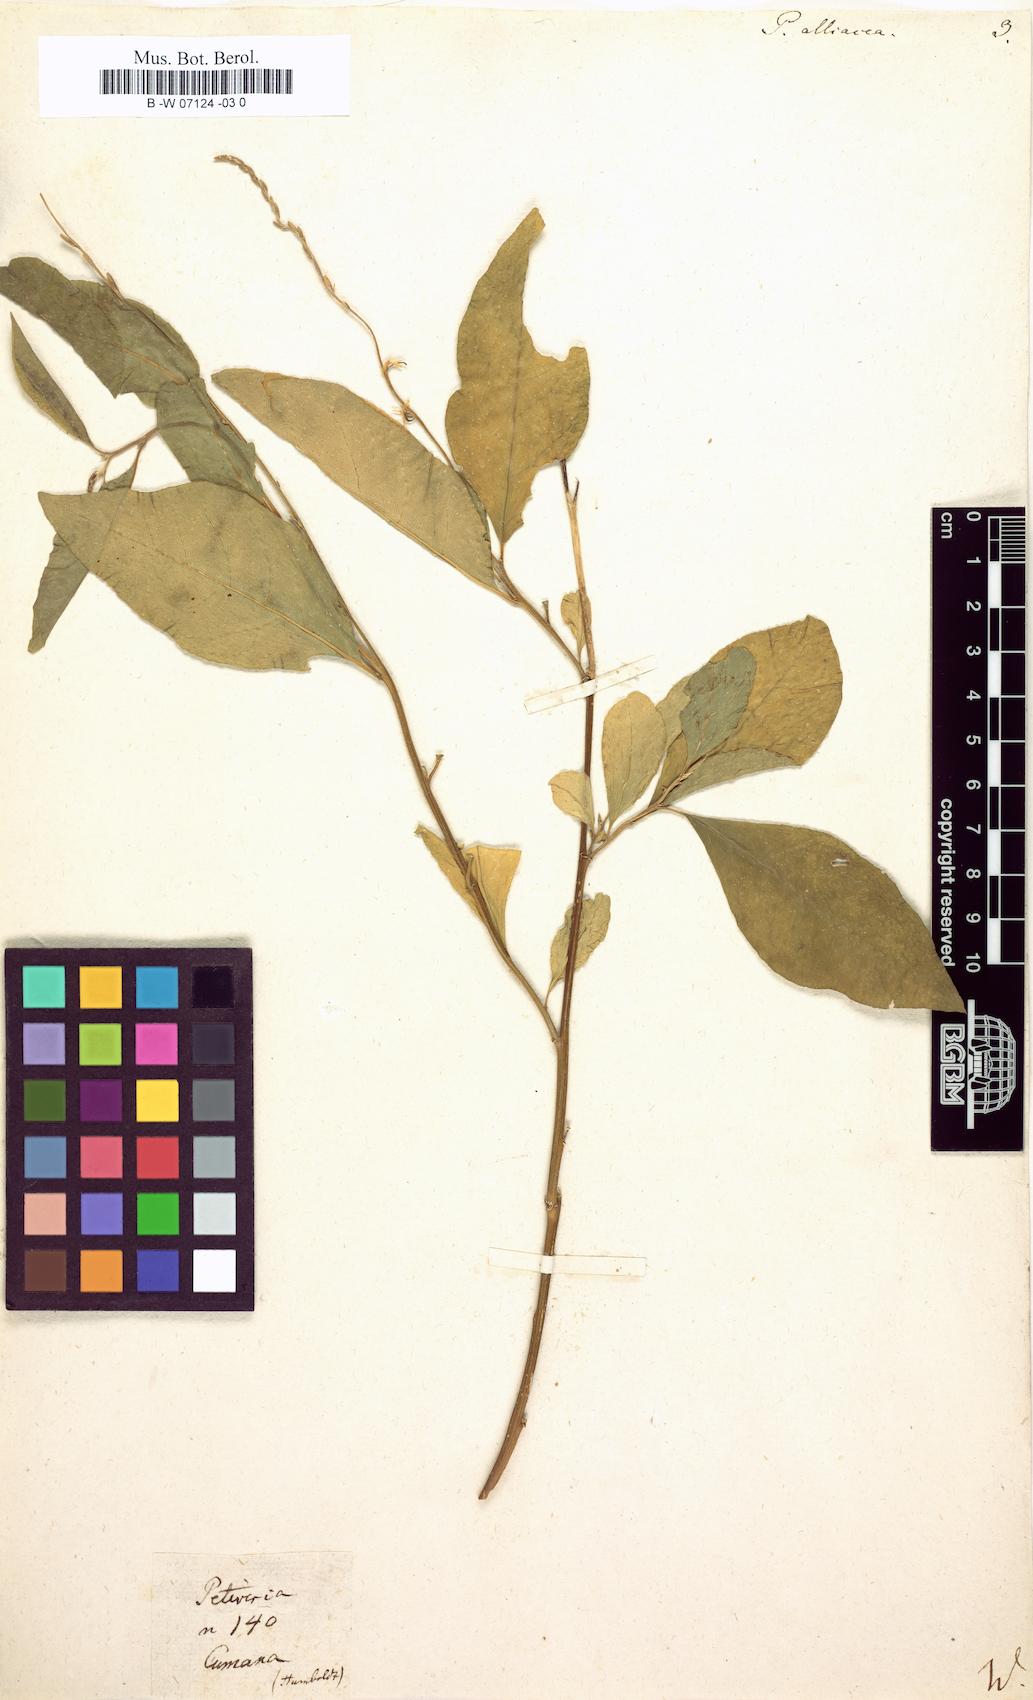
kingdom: Plantae
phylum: Tracheophyta
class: Magnoliopsida
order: Caryophyllales
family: Phytolaccaceae
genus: Petiveria
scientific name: Petiveria alliacea
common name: Garlicweed
